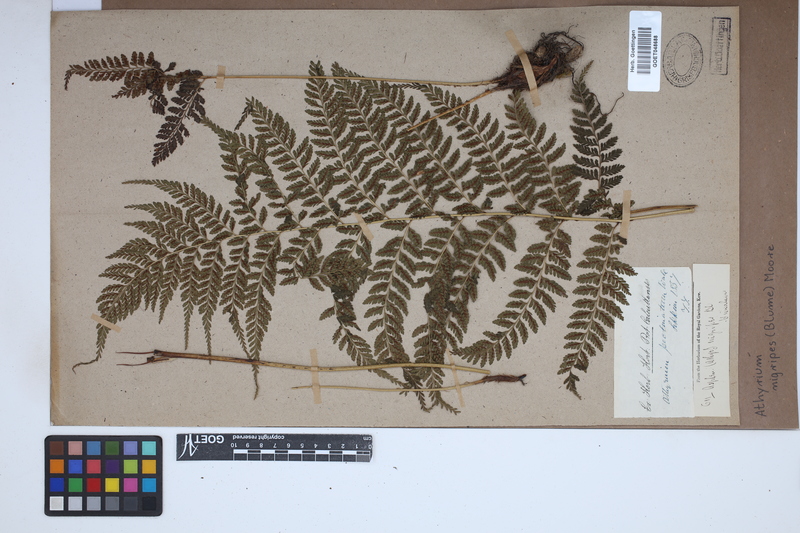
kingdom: Plantae
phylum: Tracheophyta
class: Polypodiopsida
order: Polypodiales
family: Athyriaceae
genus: Athyrium
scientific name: Athyrium nigripes
